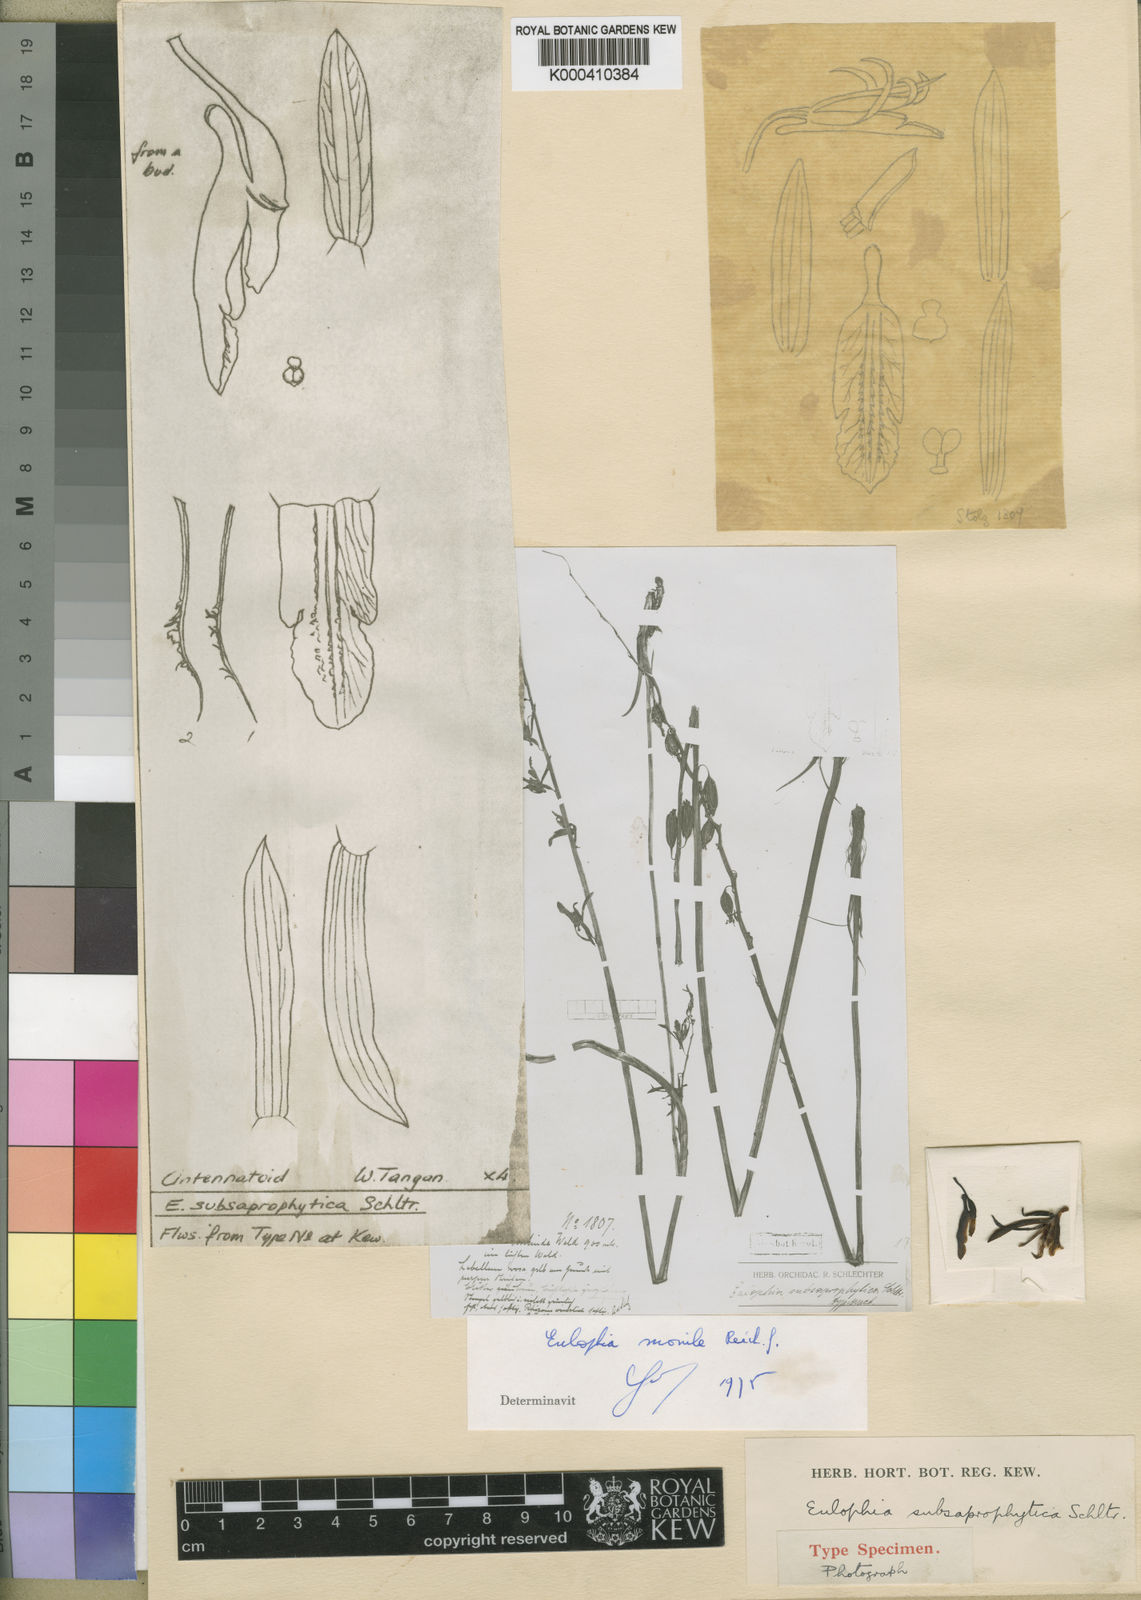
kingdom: Plantae
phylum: Tracheophyta
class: Liliopsida
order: Asparagales
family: Orchidaceae
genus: Eulophia
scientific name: Eulophia subsaprophytica
